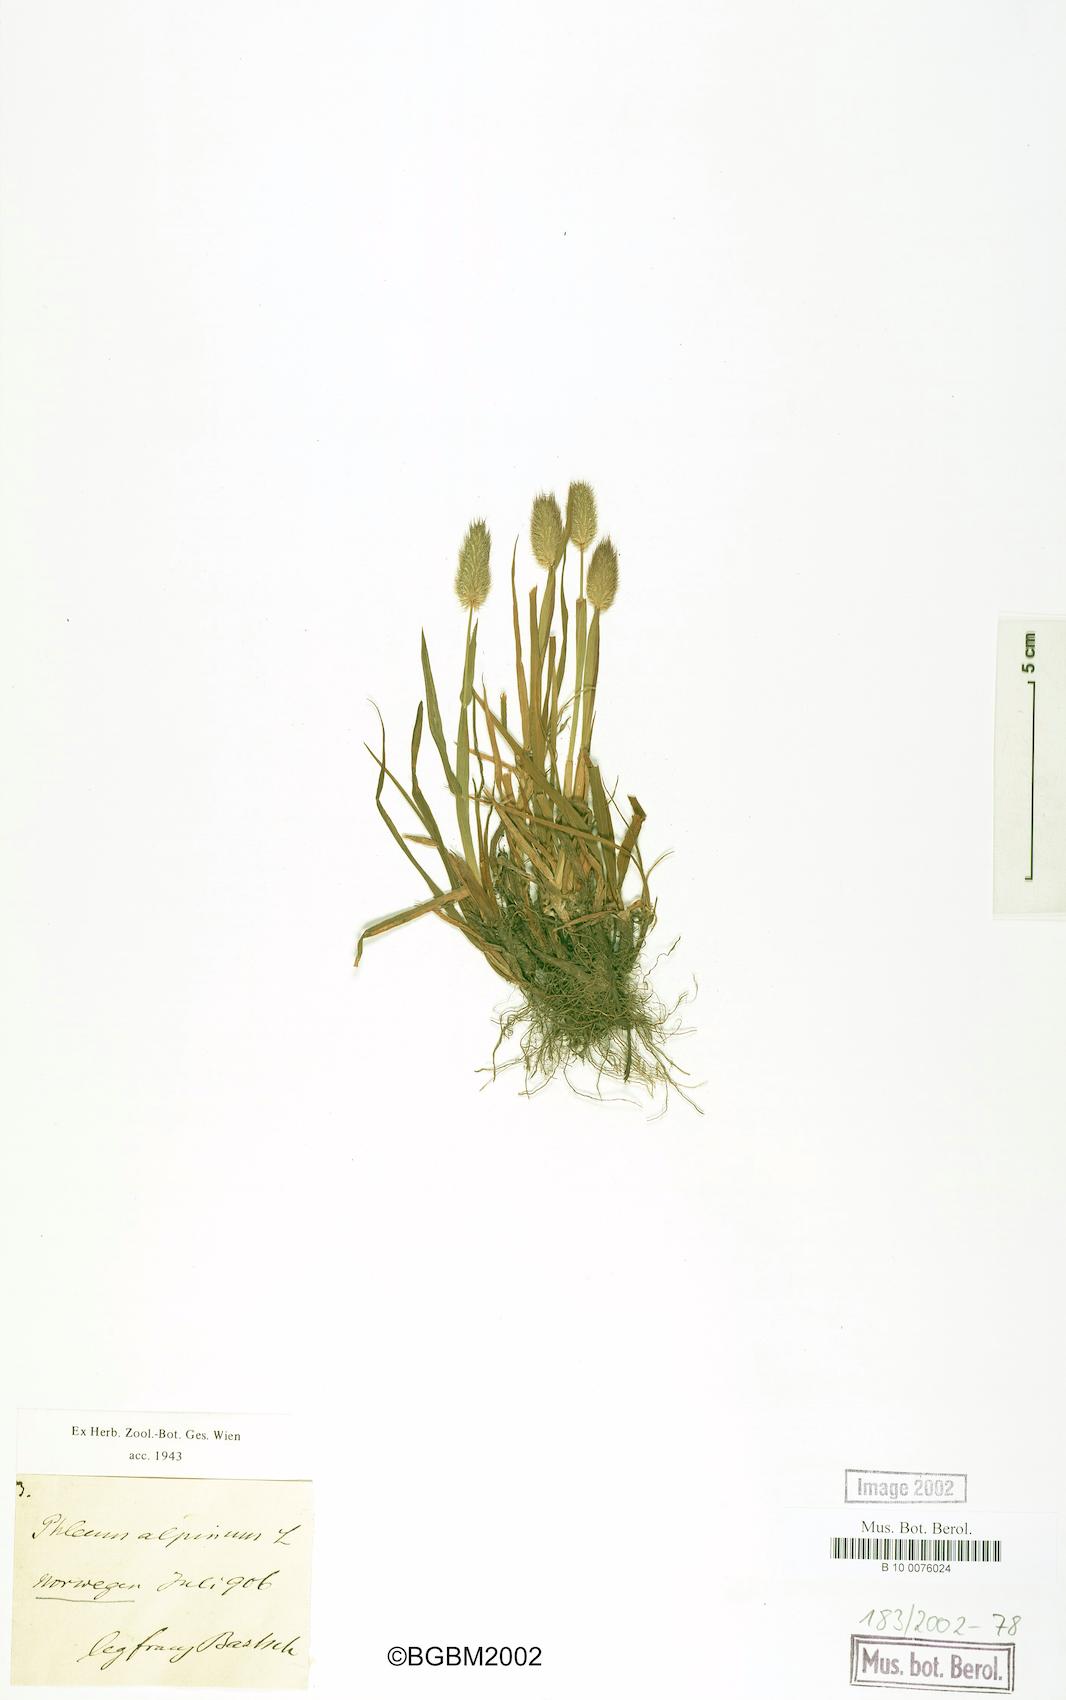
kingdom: Plantae
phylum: Tracheophyta
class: Liliopsida
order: Poales
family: Poaceae
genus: Phleum
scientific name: Phleum alpinum
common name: Alpine cat's-tail
